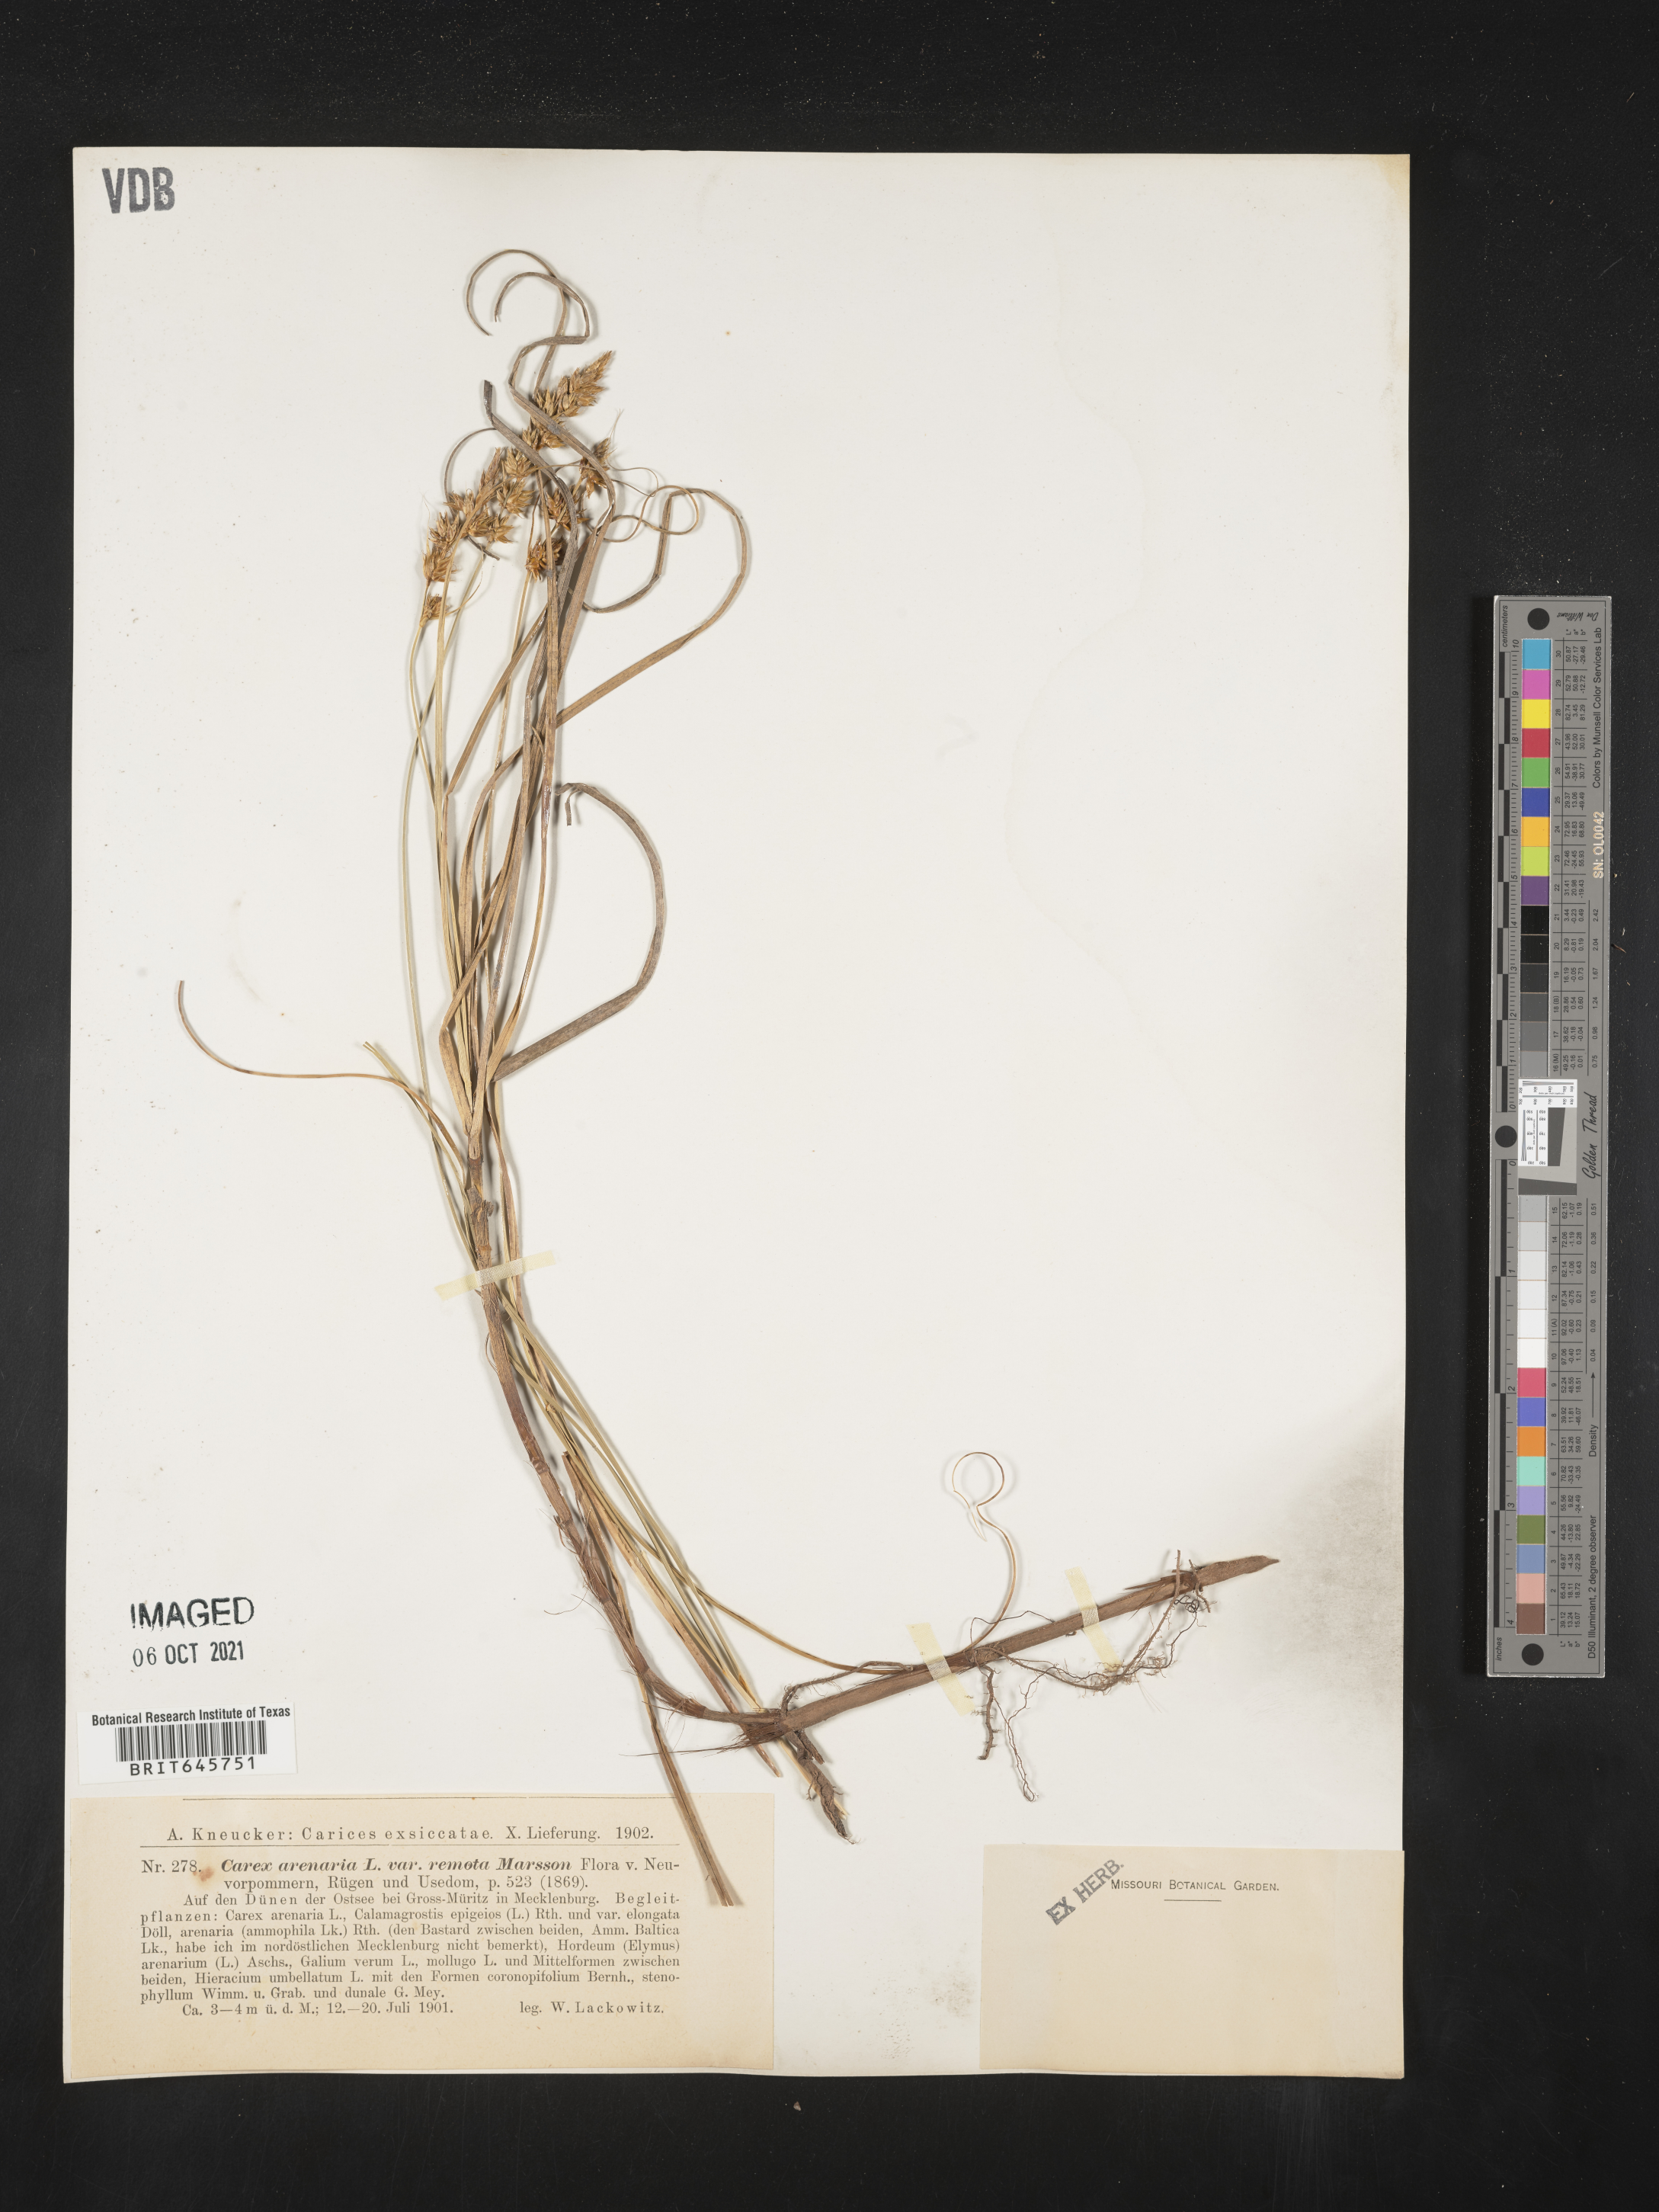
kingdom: Plantae
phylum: Tracheophyta
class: Liliopsida
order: Poales
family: Cyperaceae
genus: Carex
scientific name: Carex
